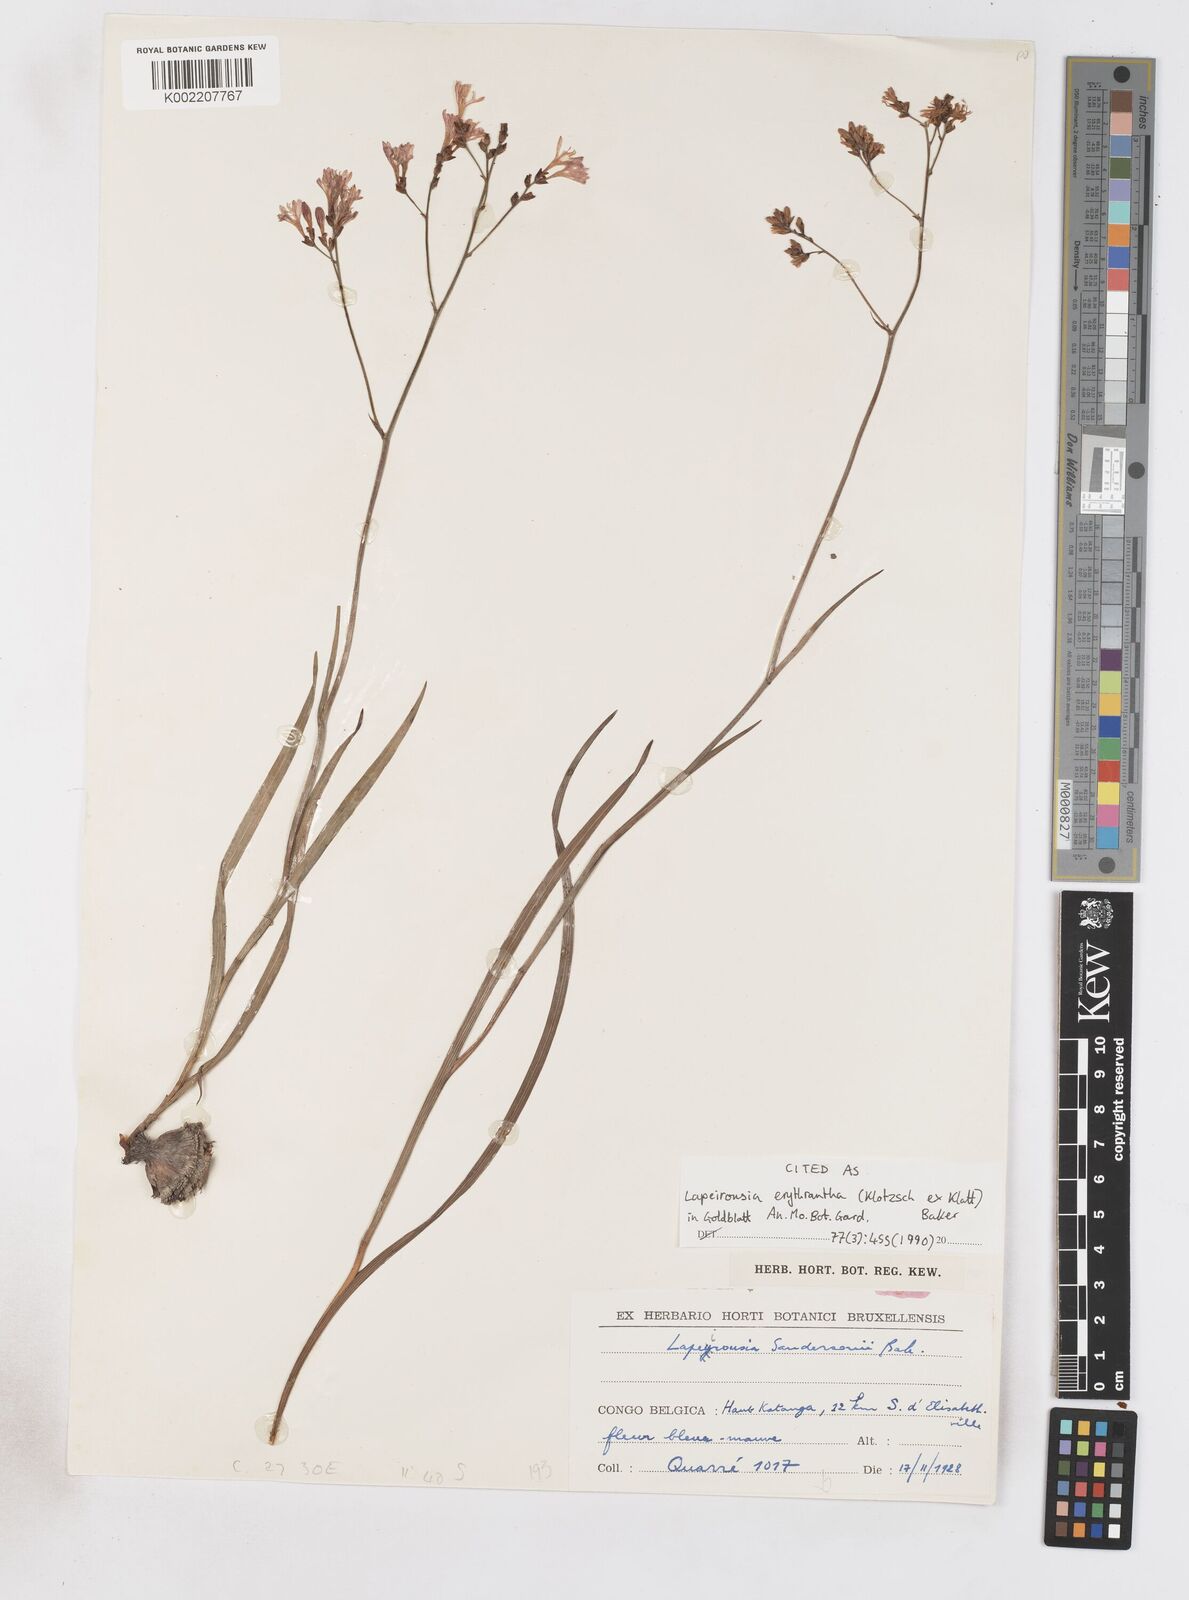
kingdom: Plantae
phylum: Tracheophyta
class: Liliopsida
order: Asparagales
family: Iridaceae
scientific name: Iridaceae
